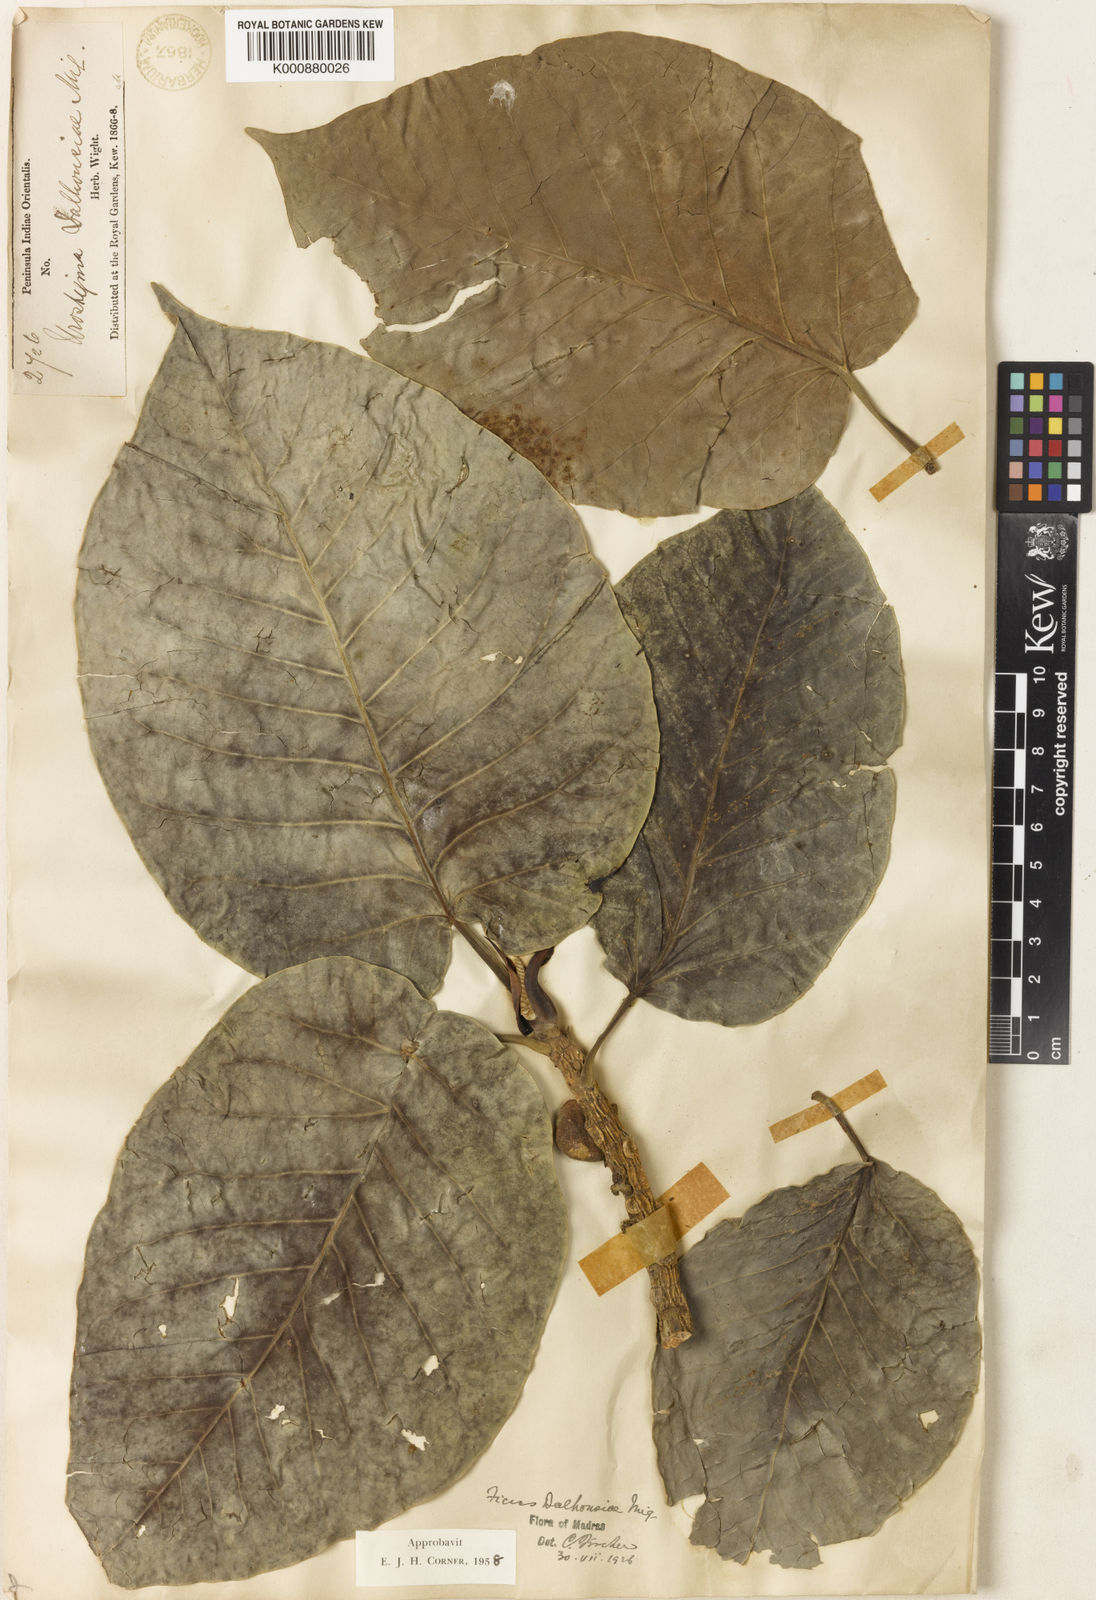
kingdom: Plantae
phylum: Tracheophyta
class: Magnoliopsida
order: Rosales
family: Moraceae
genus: Ficus
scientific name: Ficus dalhousiae
